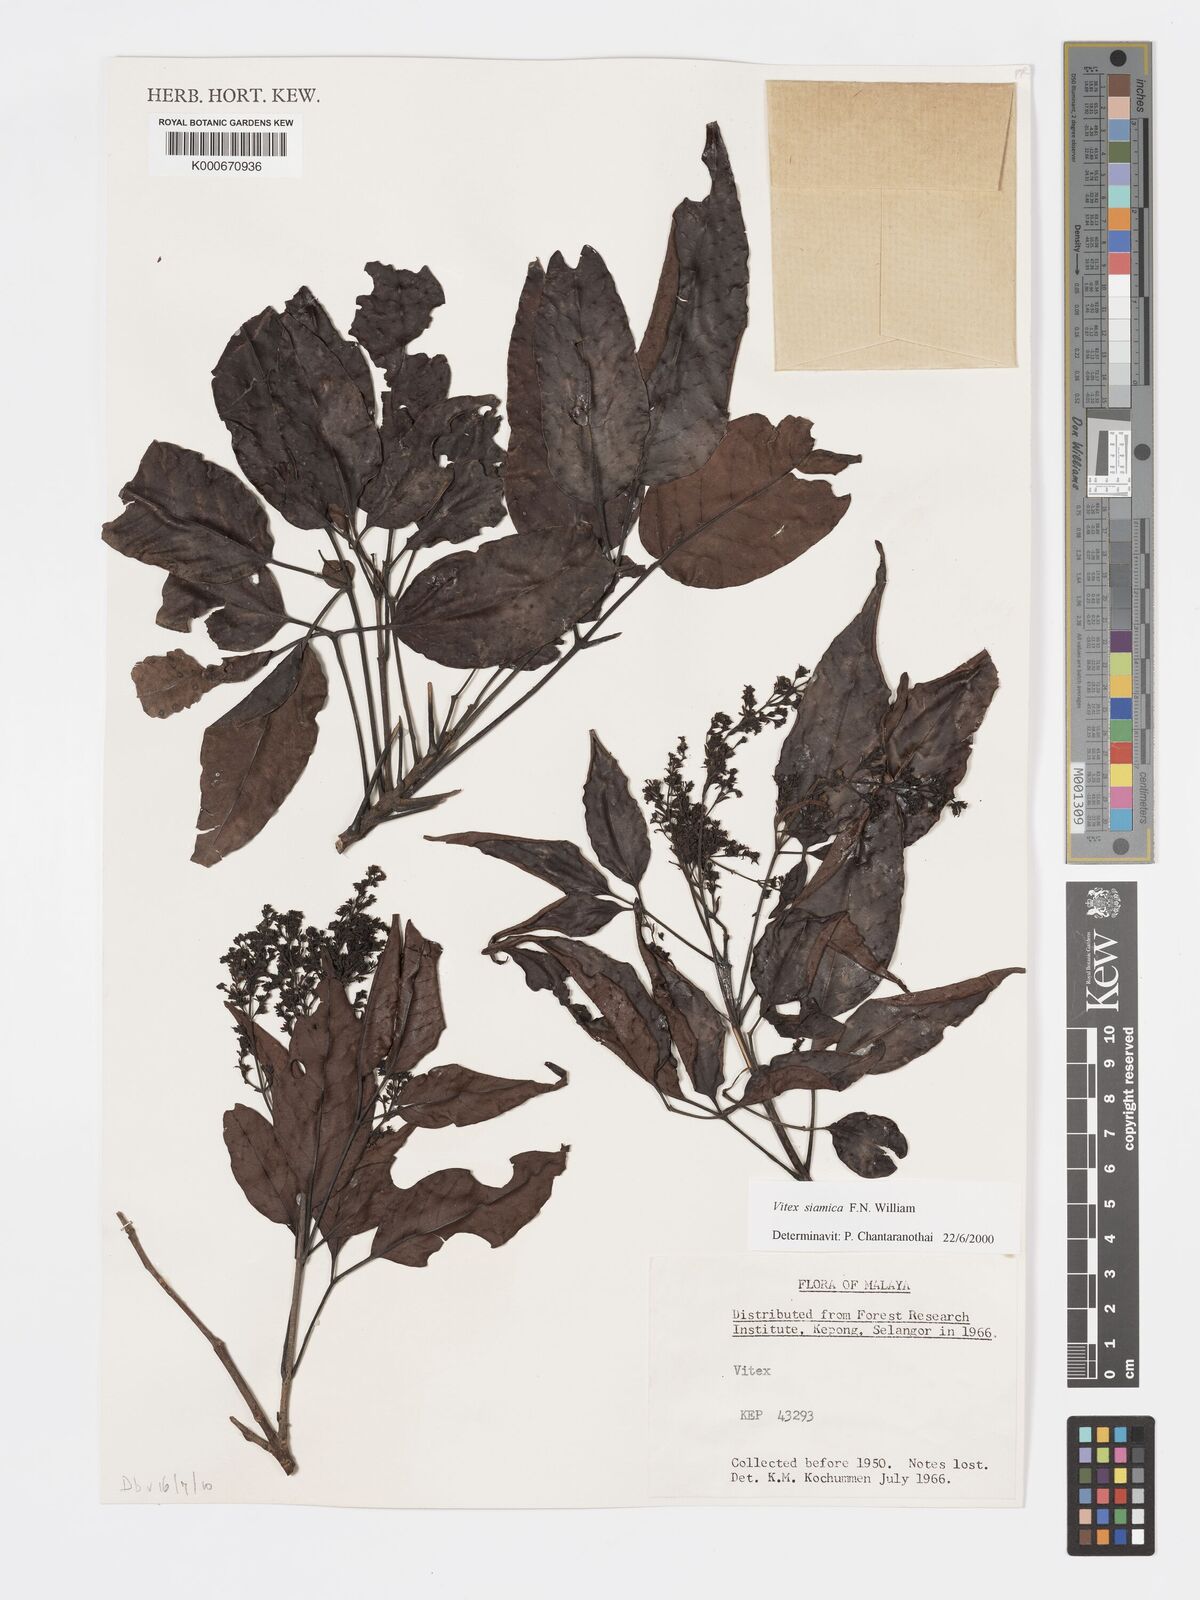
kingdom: Plantae
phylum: Tracheophyta
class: Magnoliopsida
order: Lamiales
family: Lamiaceae
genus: Vitex
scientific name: Vitex siamica
